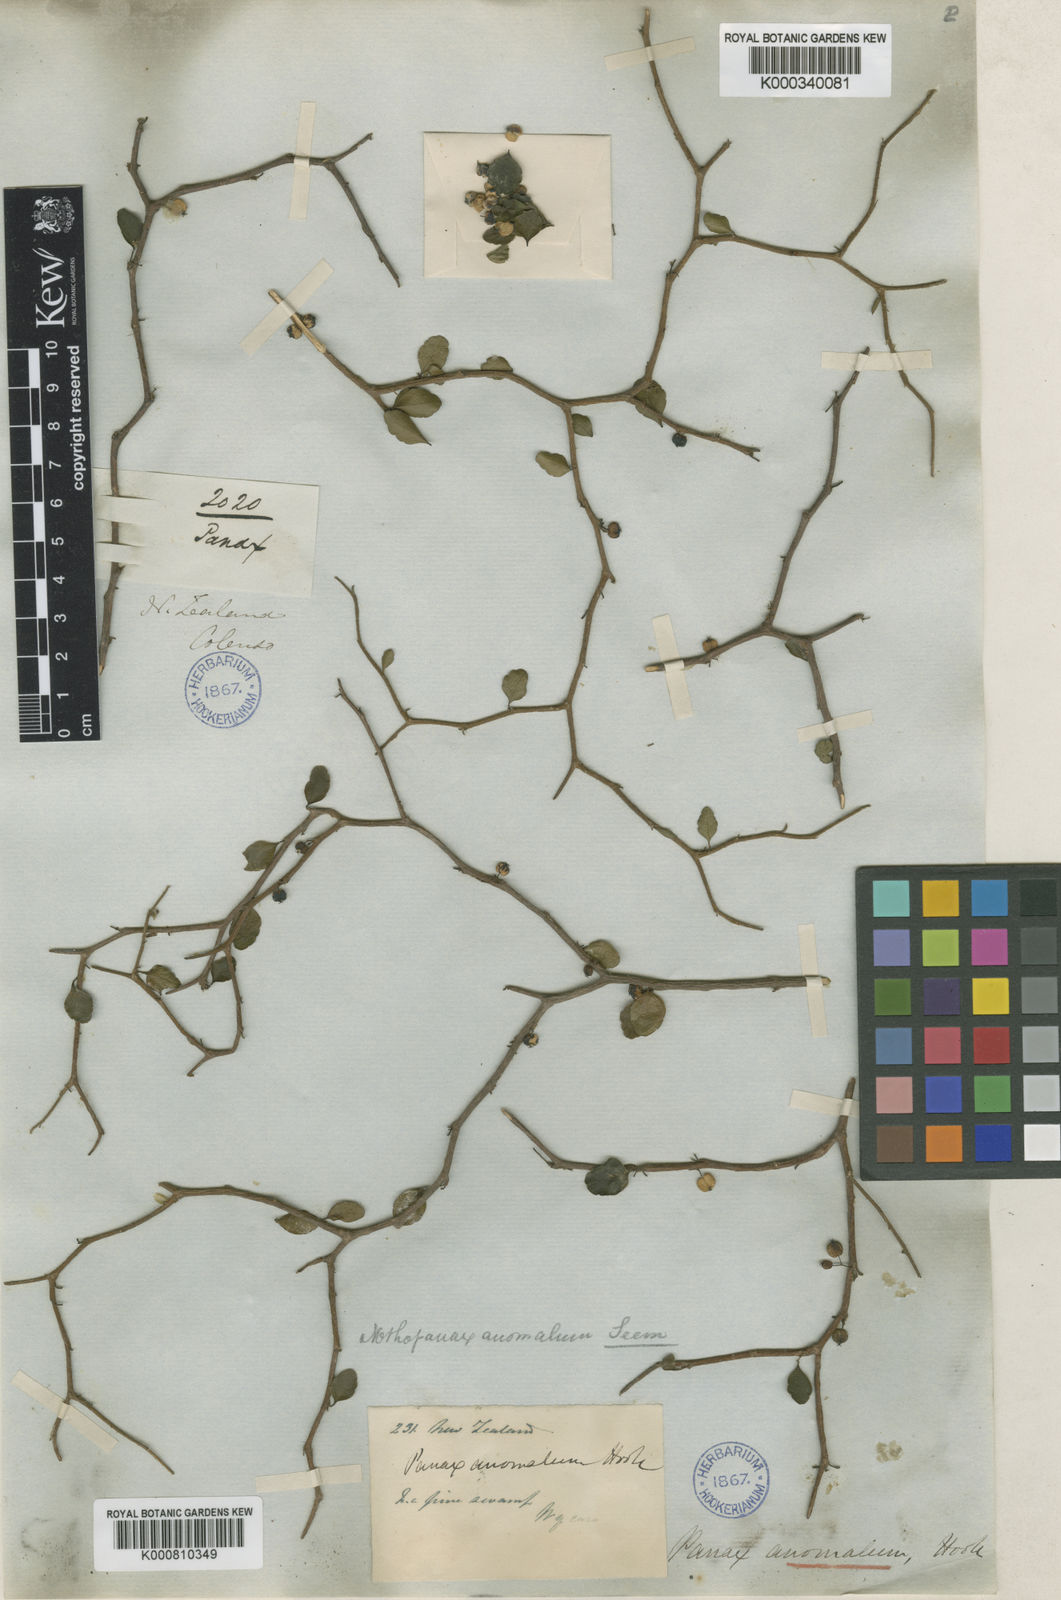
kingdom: Plantae
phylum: Tracheophyta
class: Magnoliopsida
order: Apiales
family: Araliaceae
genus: Raukaua
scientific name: Raukaua anomalus
